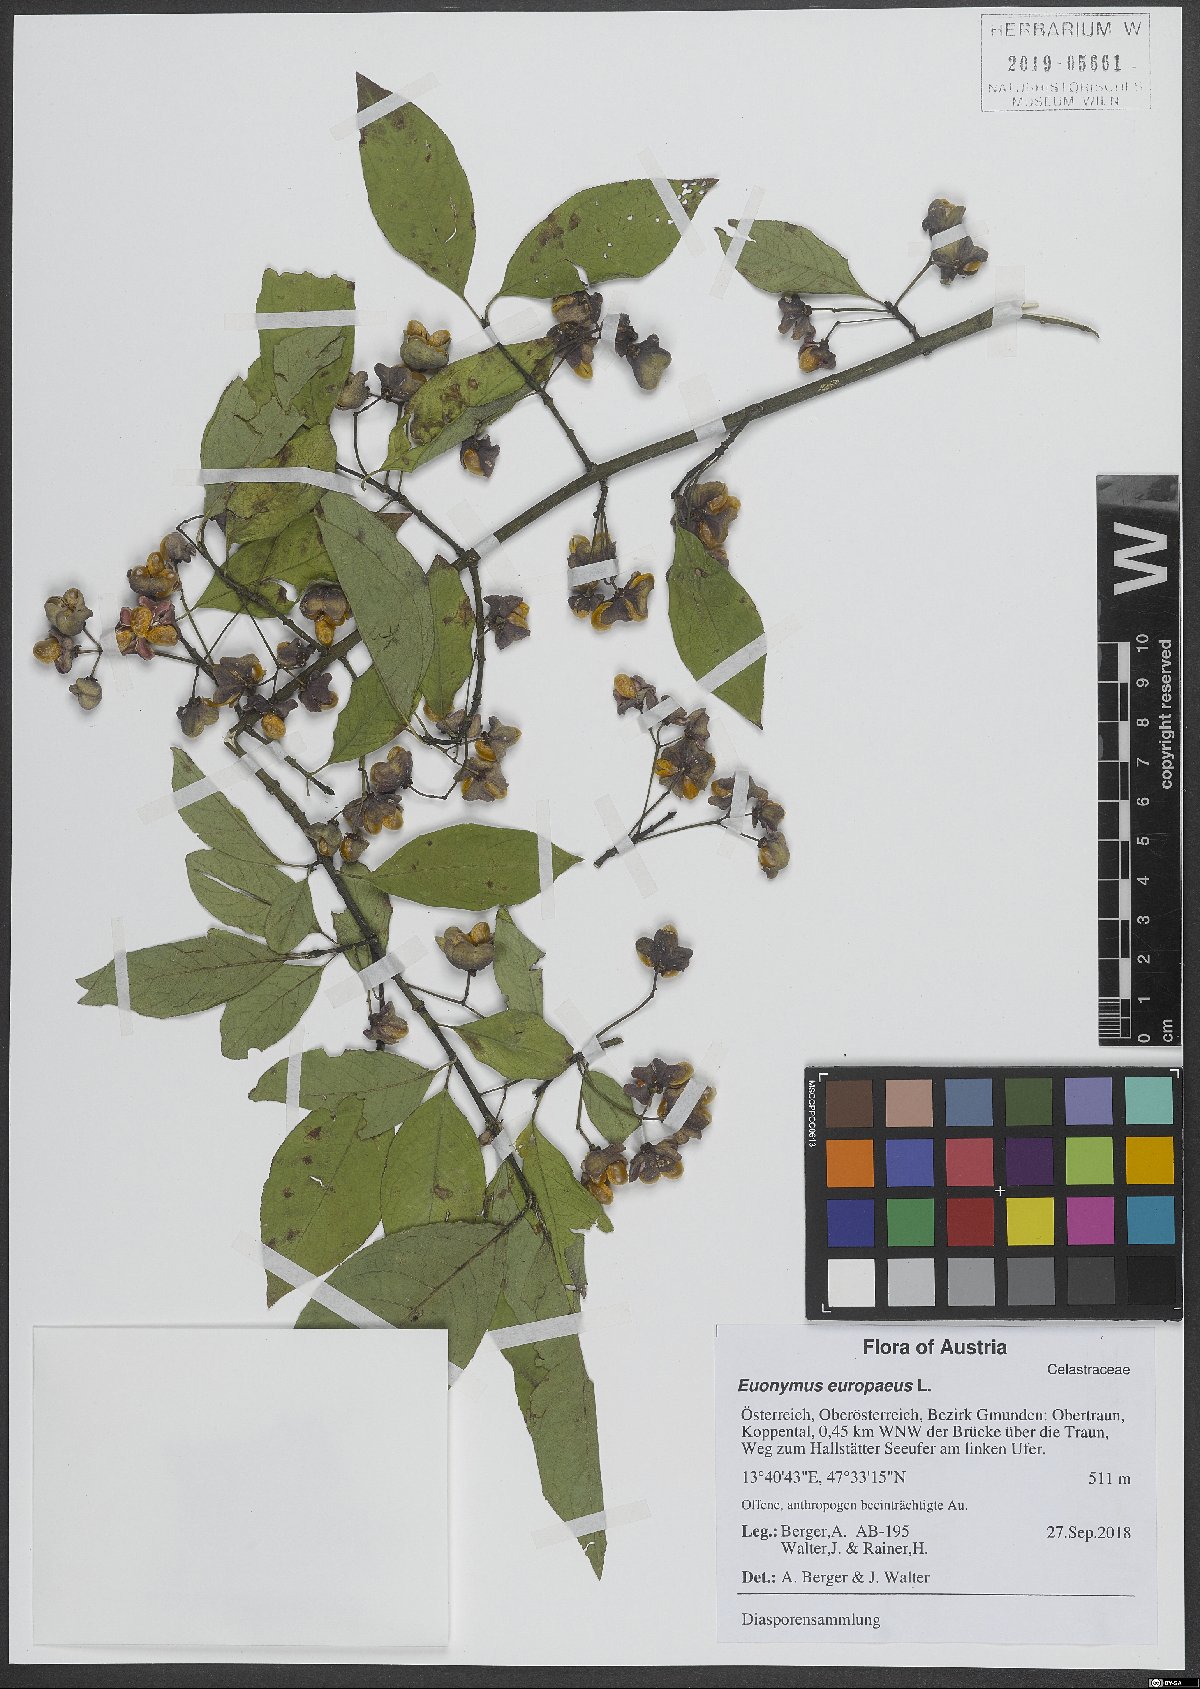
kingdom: Plantae
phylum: Tracheophyta
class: Magnoliopsida
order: Celastrales
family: Celastraceae
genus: Euonymus
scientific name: Euonymus europaeus
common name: Spindle
